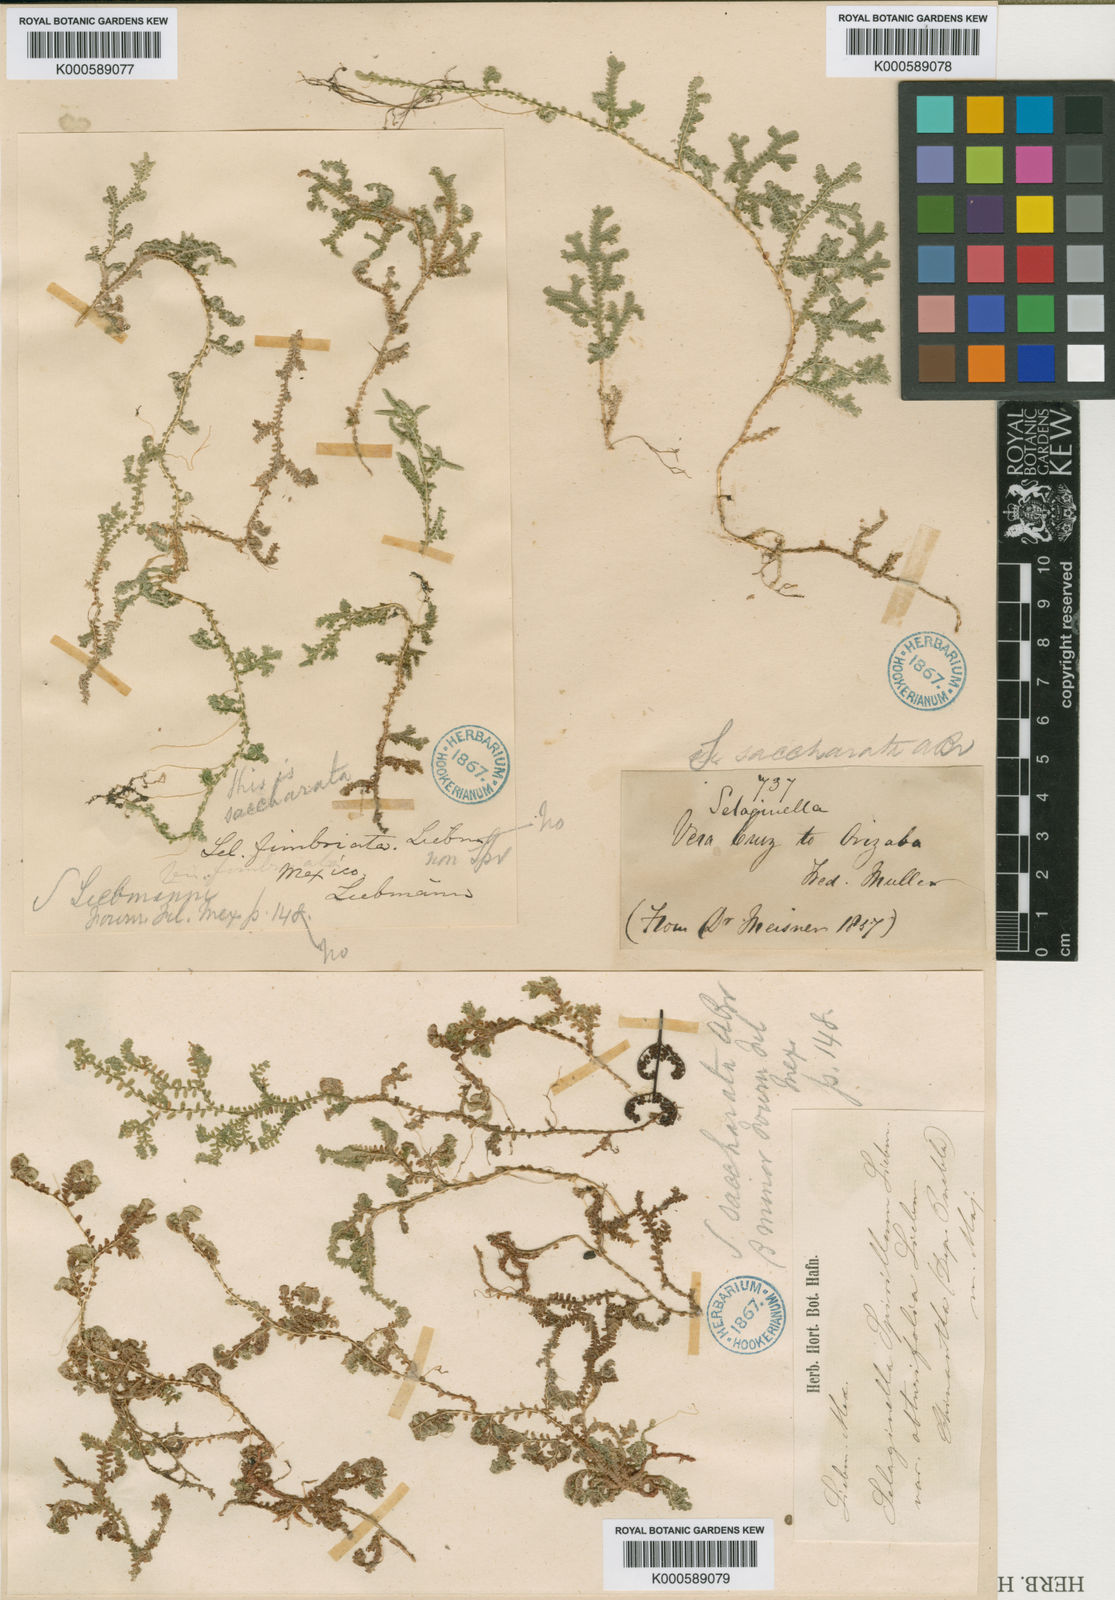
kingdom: Plantae
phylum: Tracheophyta
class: Lycopodiopsida
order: Selaginellales
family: Selaginellaceae
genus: Selaginella
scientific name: Selaginella
